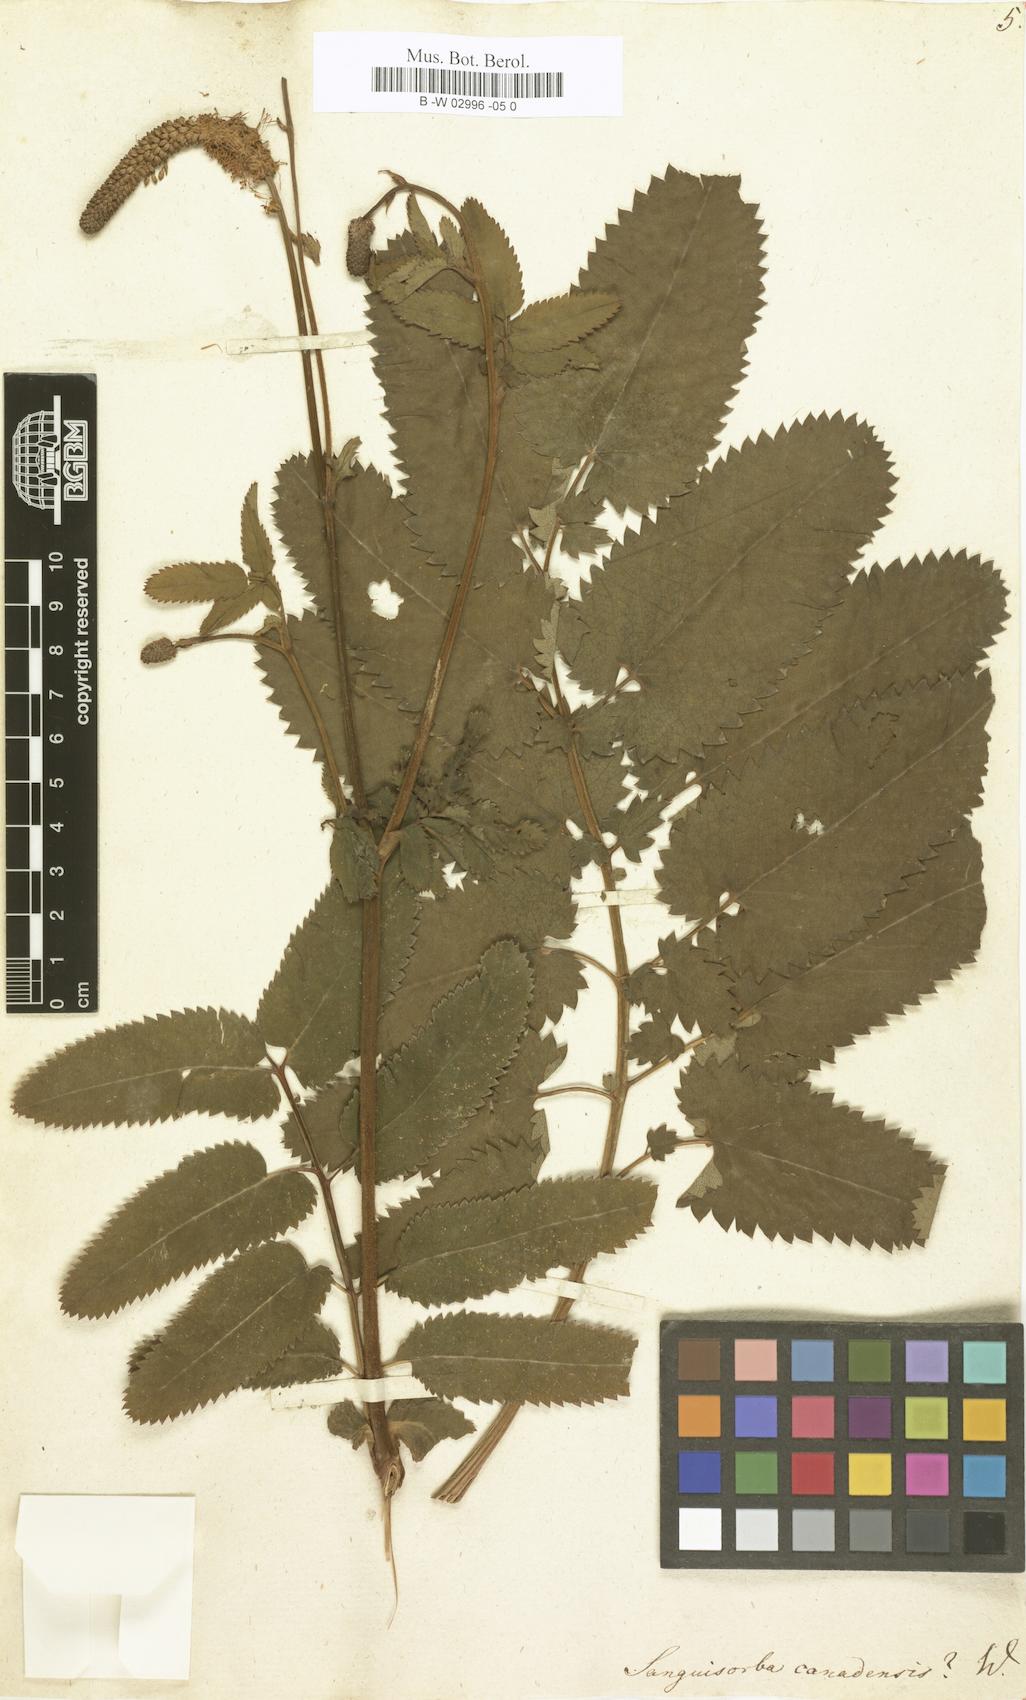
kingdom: Plantae
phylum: Tracheophyta
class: Magnoliopsida
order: Rosales
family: Rosaceae
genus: Sanguisorba
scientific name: Sanguisorba canadensis
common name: White burnet
